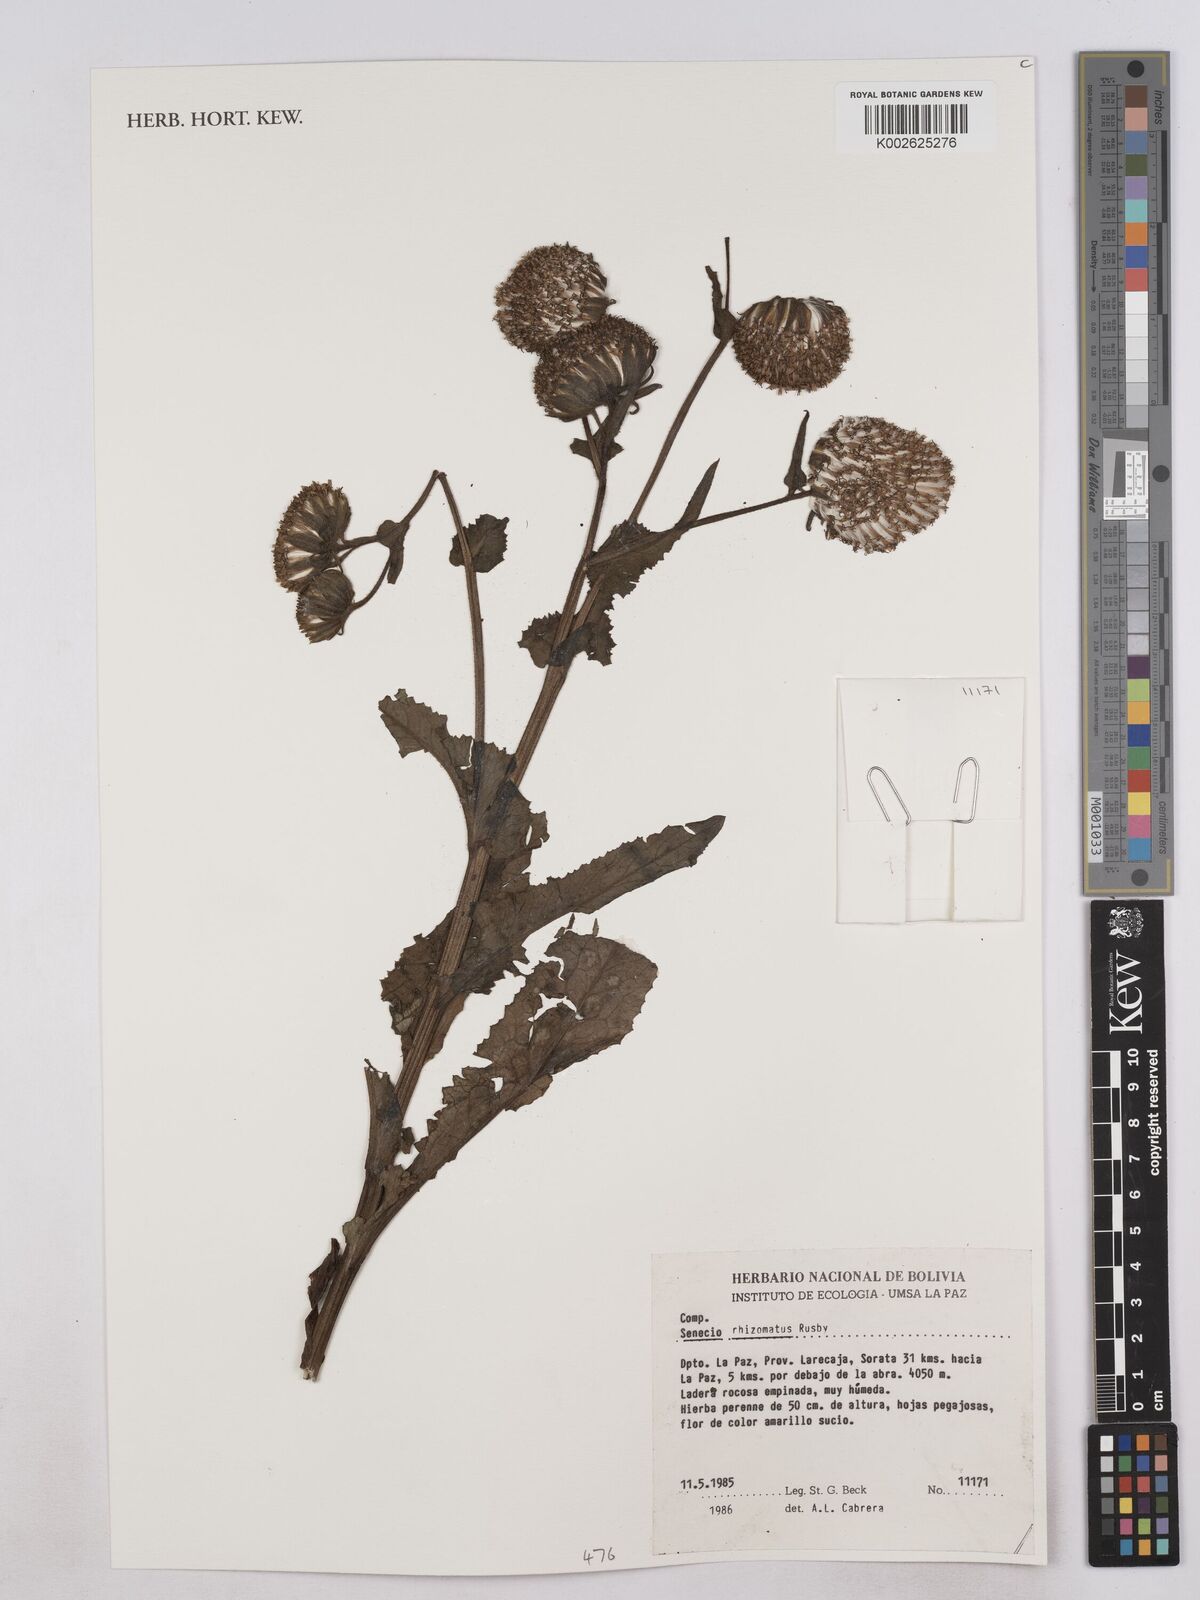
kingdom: Plantae
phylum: Tracheophyta
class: Magnoliopsida
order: Asterales
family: Asteraceae
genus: Senecio
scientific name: Senecio rhizomatus
